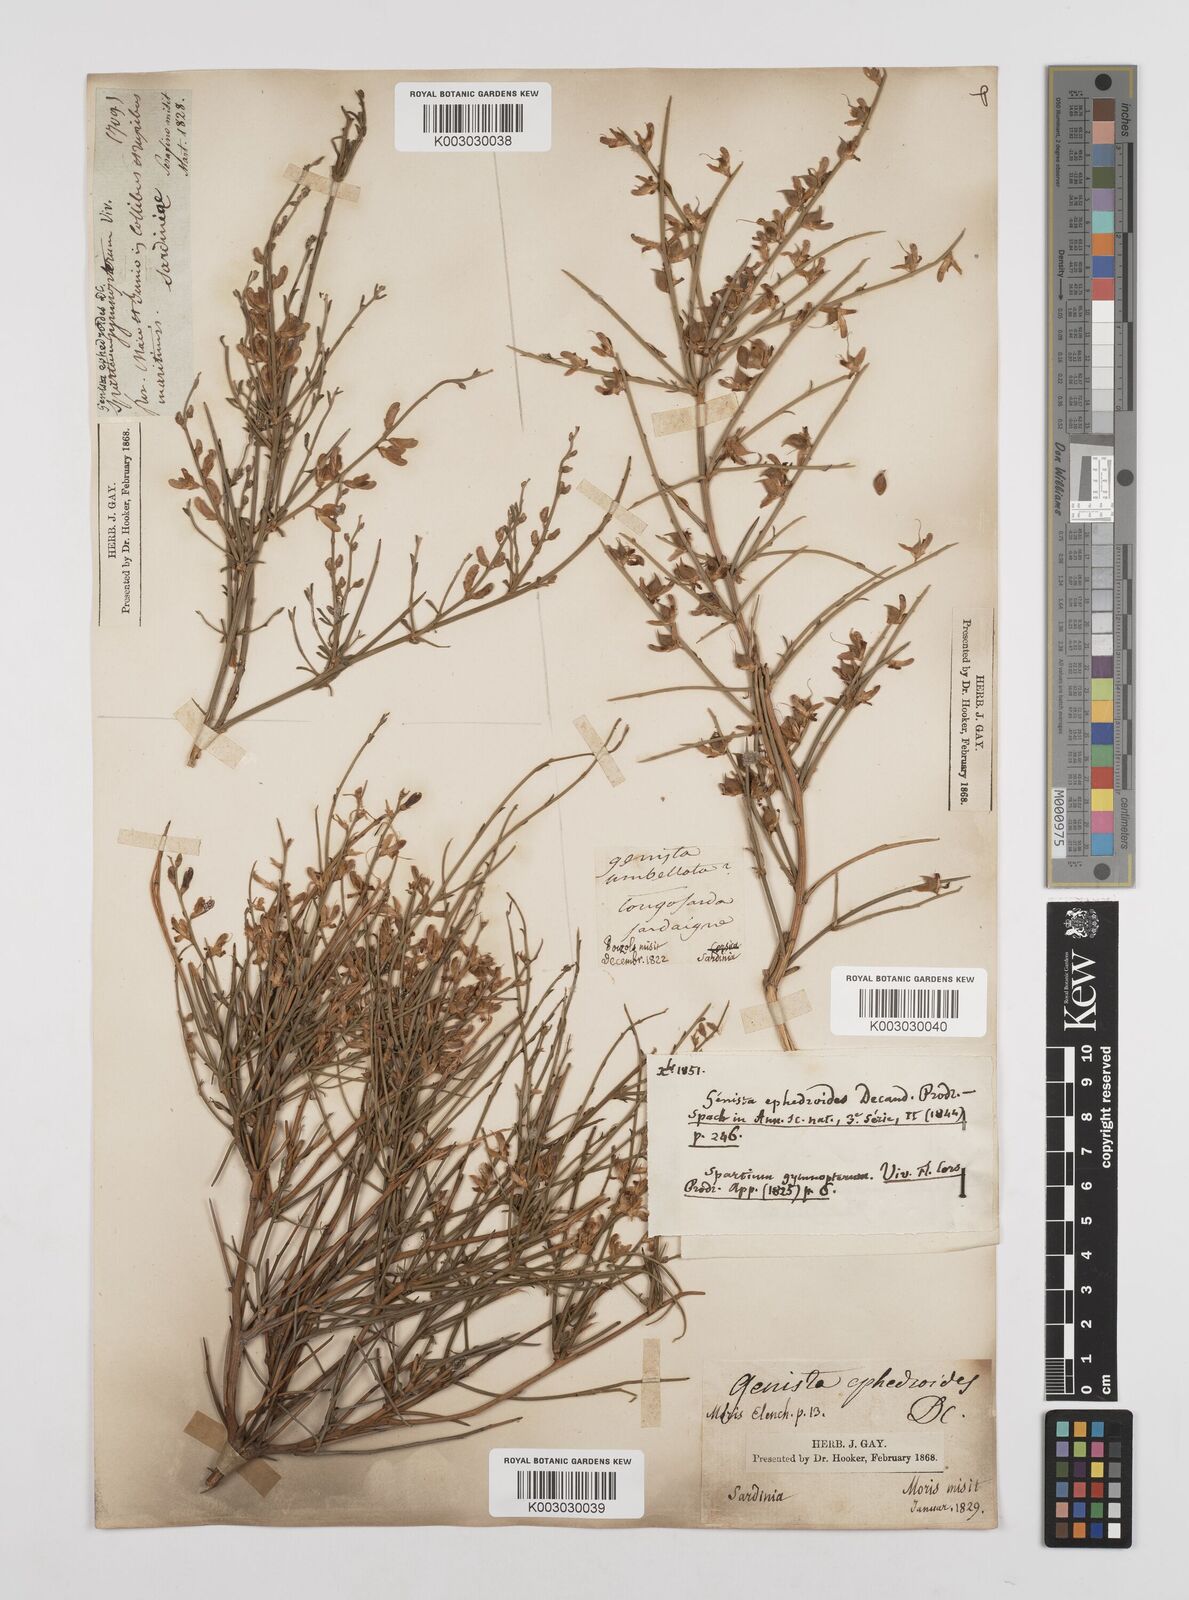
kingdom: Plantae
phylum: Tracheophyta
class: Magnoliopsida
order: Fabales
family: Fabaceae
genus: Genista
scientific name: Genista ephedroides
